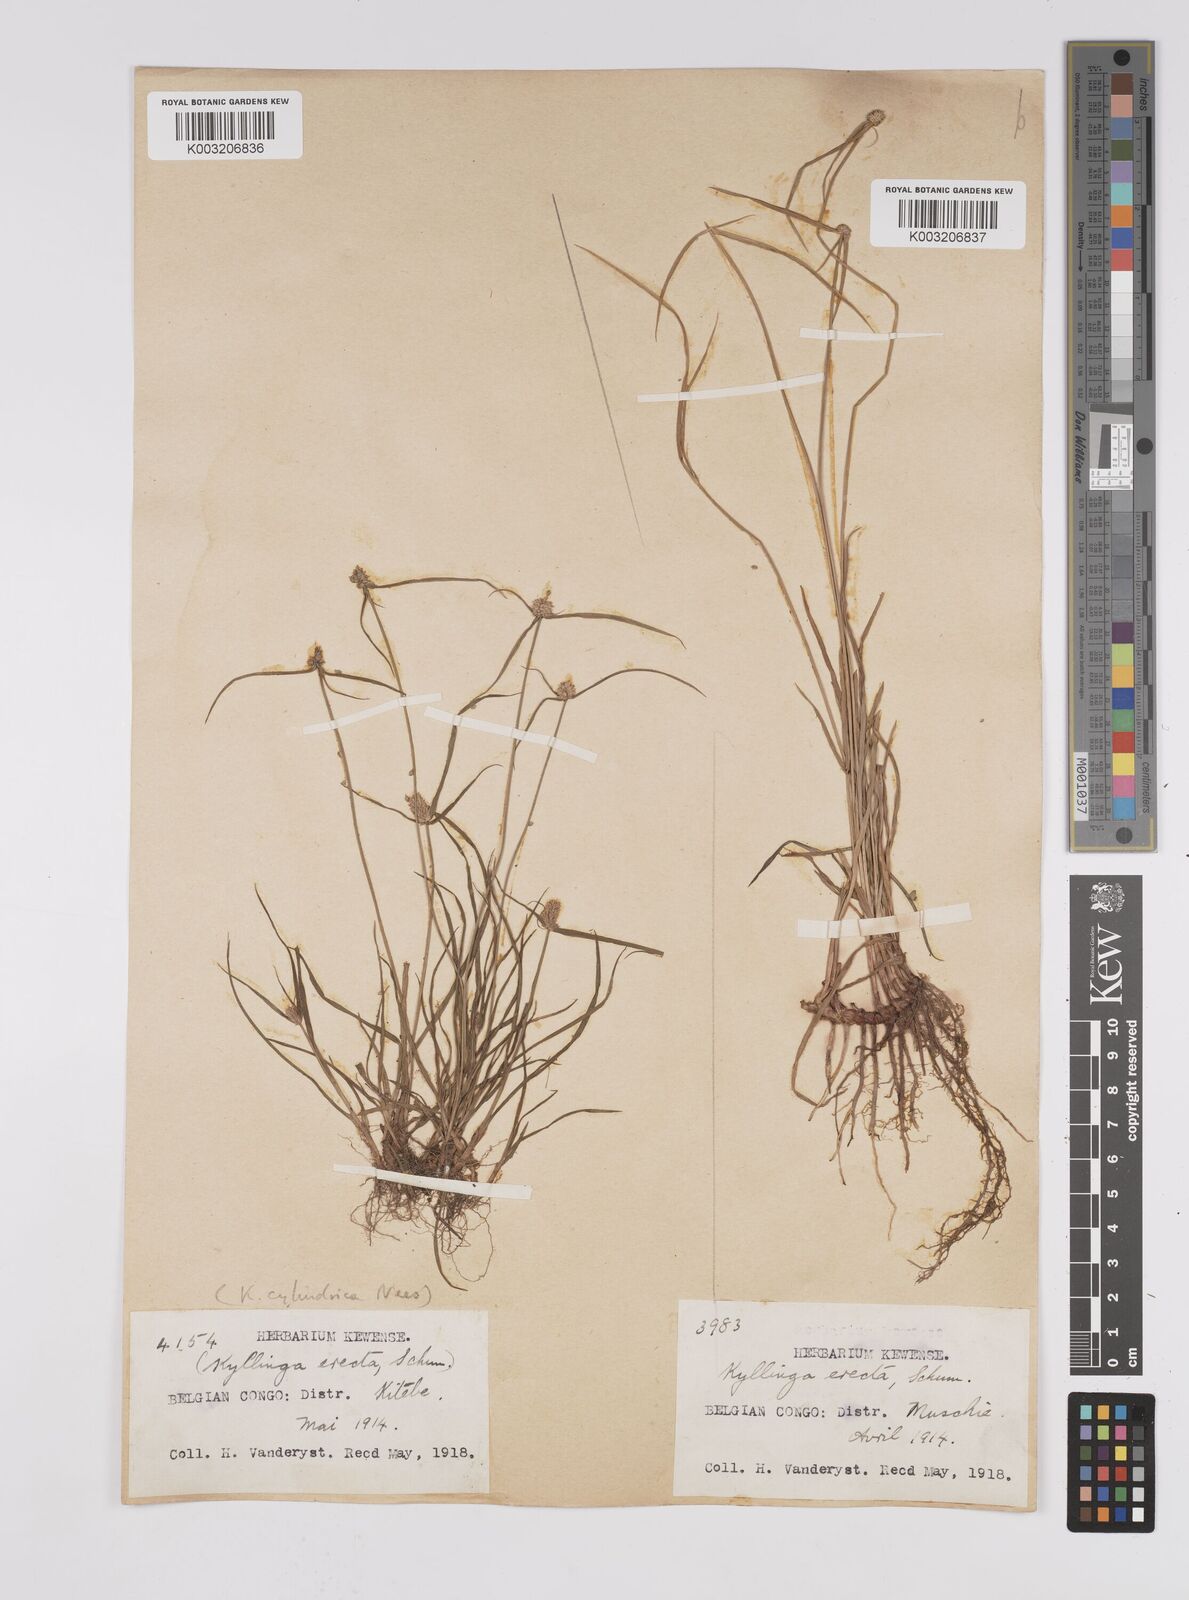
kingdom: Plantae
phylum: Tracheophyta
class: Liliopsida
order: Poales
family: Cyperaceae
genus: Cyperus
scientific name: Cyperus erectus
